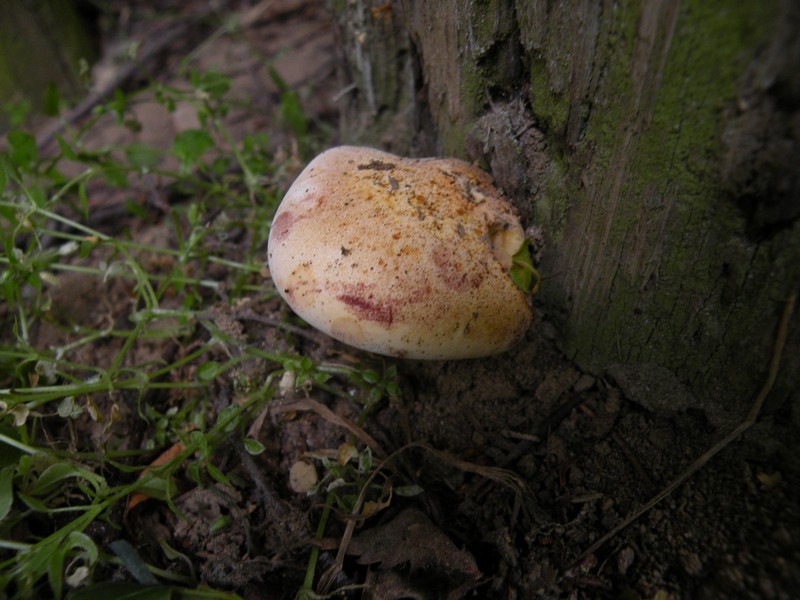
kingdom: Fungi
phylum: Basidiomycota
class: Agaricomycetes
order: Polyporales
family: Fomitopsidaceae
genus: Buglossoporus
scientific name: Buglossoporus quercinus
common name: egetunge
